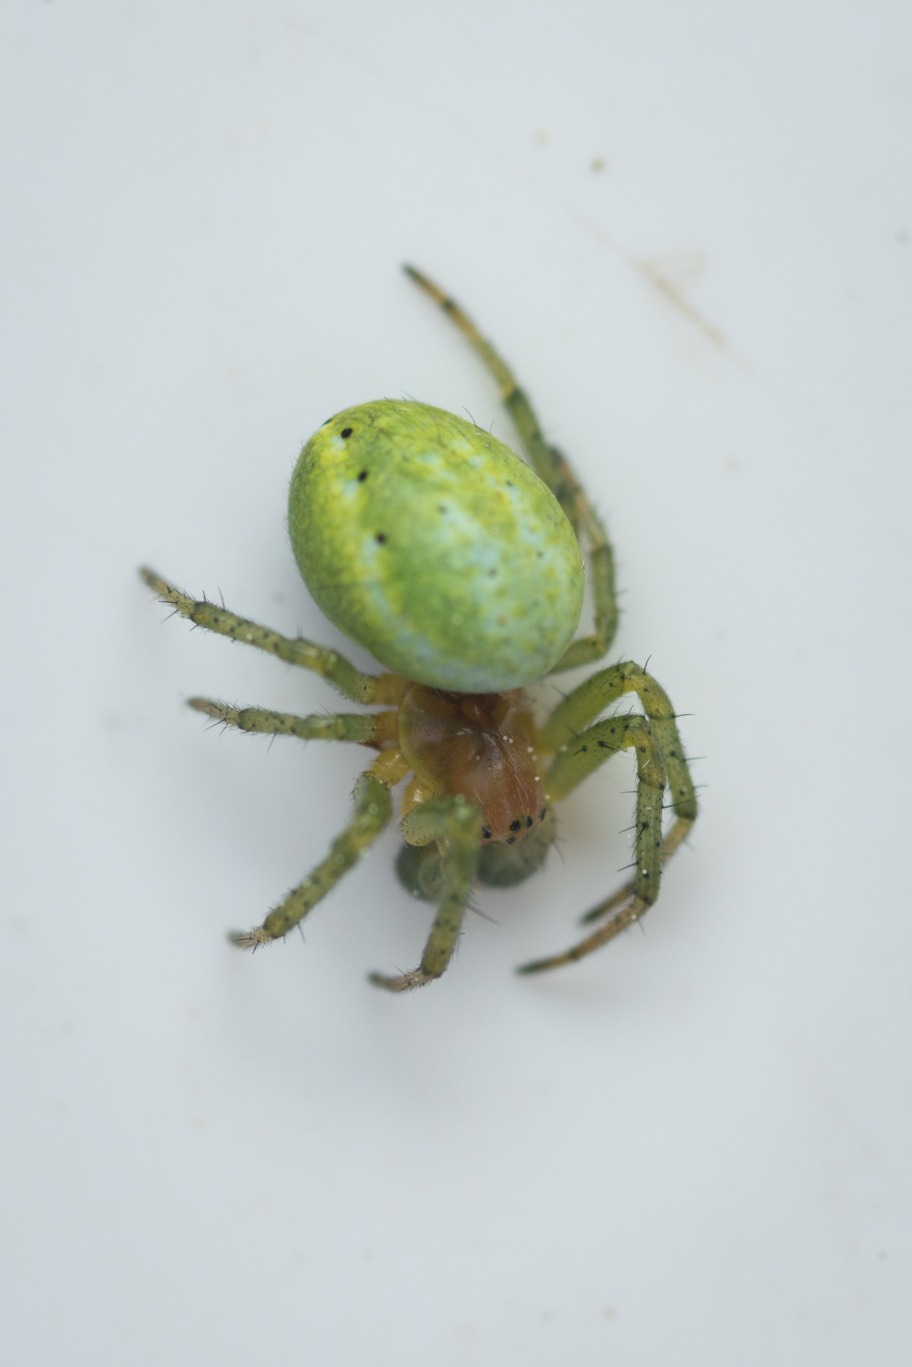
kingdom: Animalia
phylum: Arthropoda
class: Arachnida
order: Araneae
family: Araneidae
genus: Araniella
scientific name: Araniella
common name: Agurkeedderkopslægten
